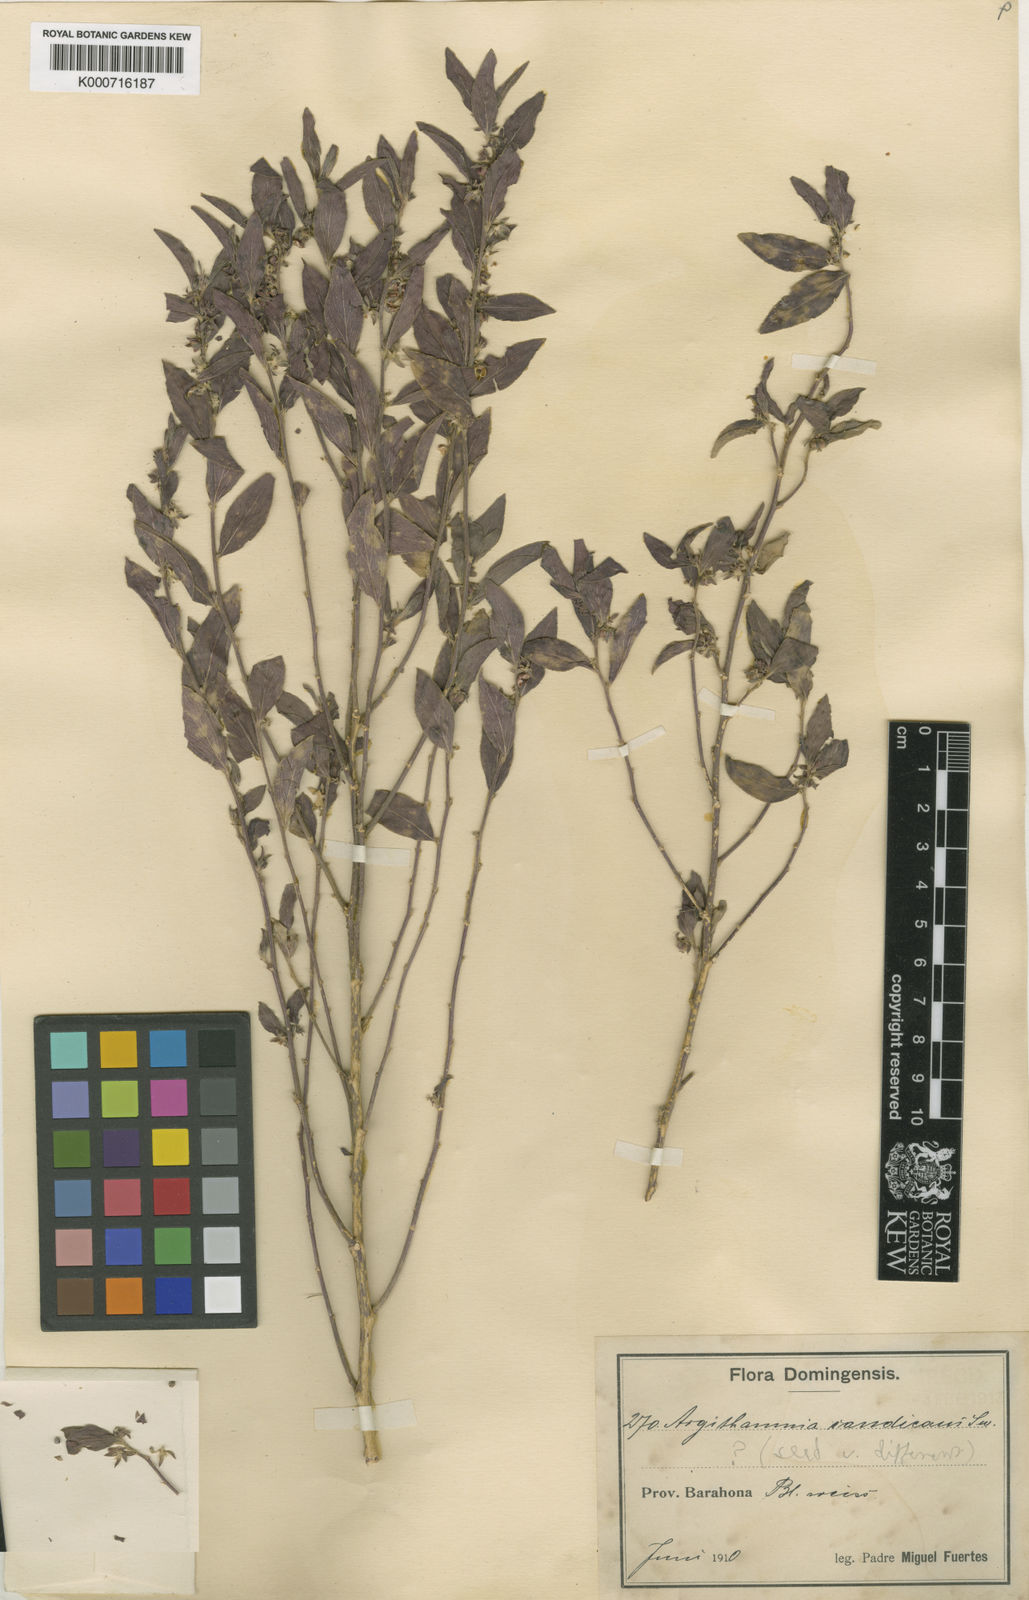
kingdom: Plantae
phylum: Tracheophyta
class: Magnoliopsida
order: Malpighiales
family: Euphorbiaceae
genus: Argythamnia
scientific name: Argythamnia candicans
